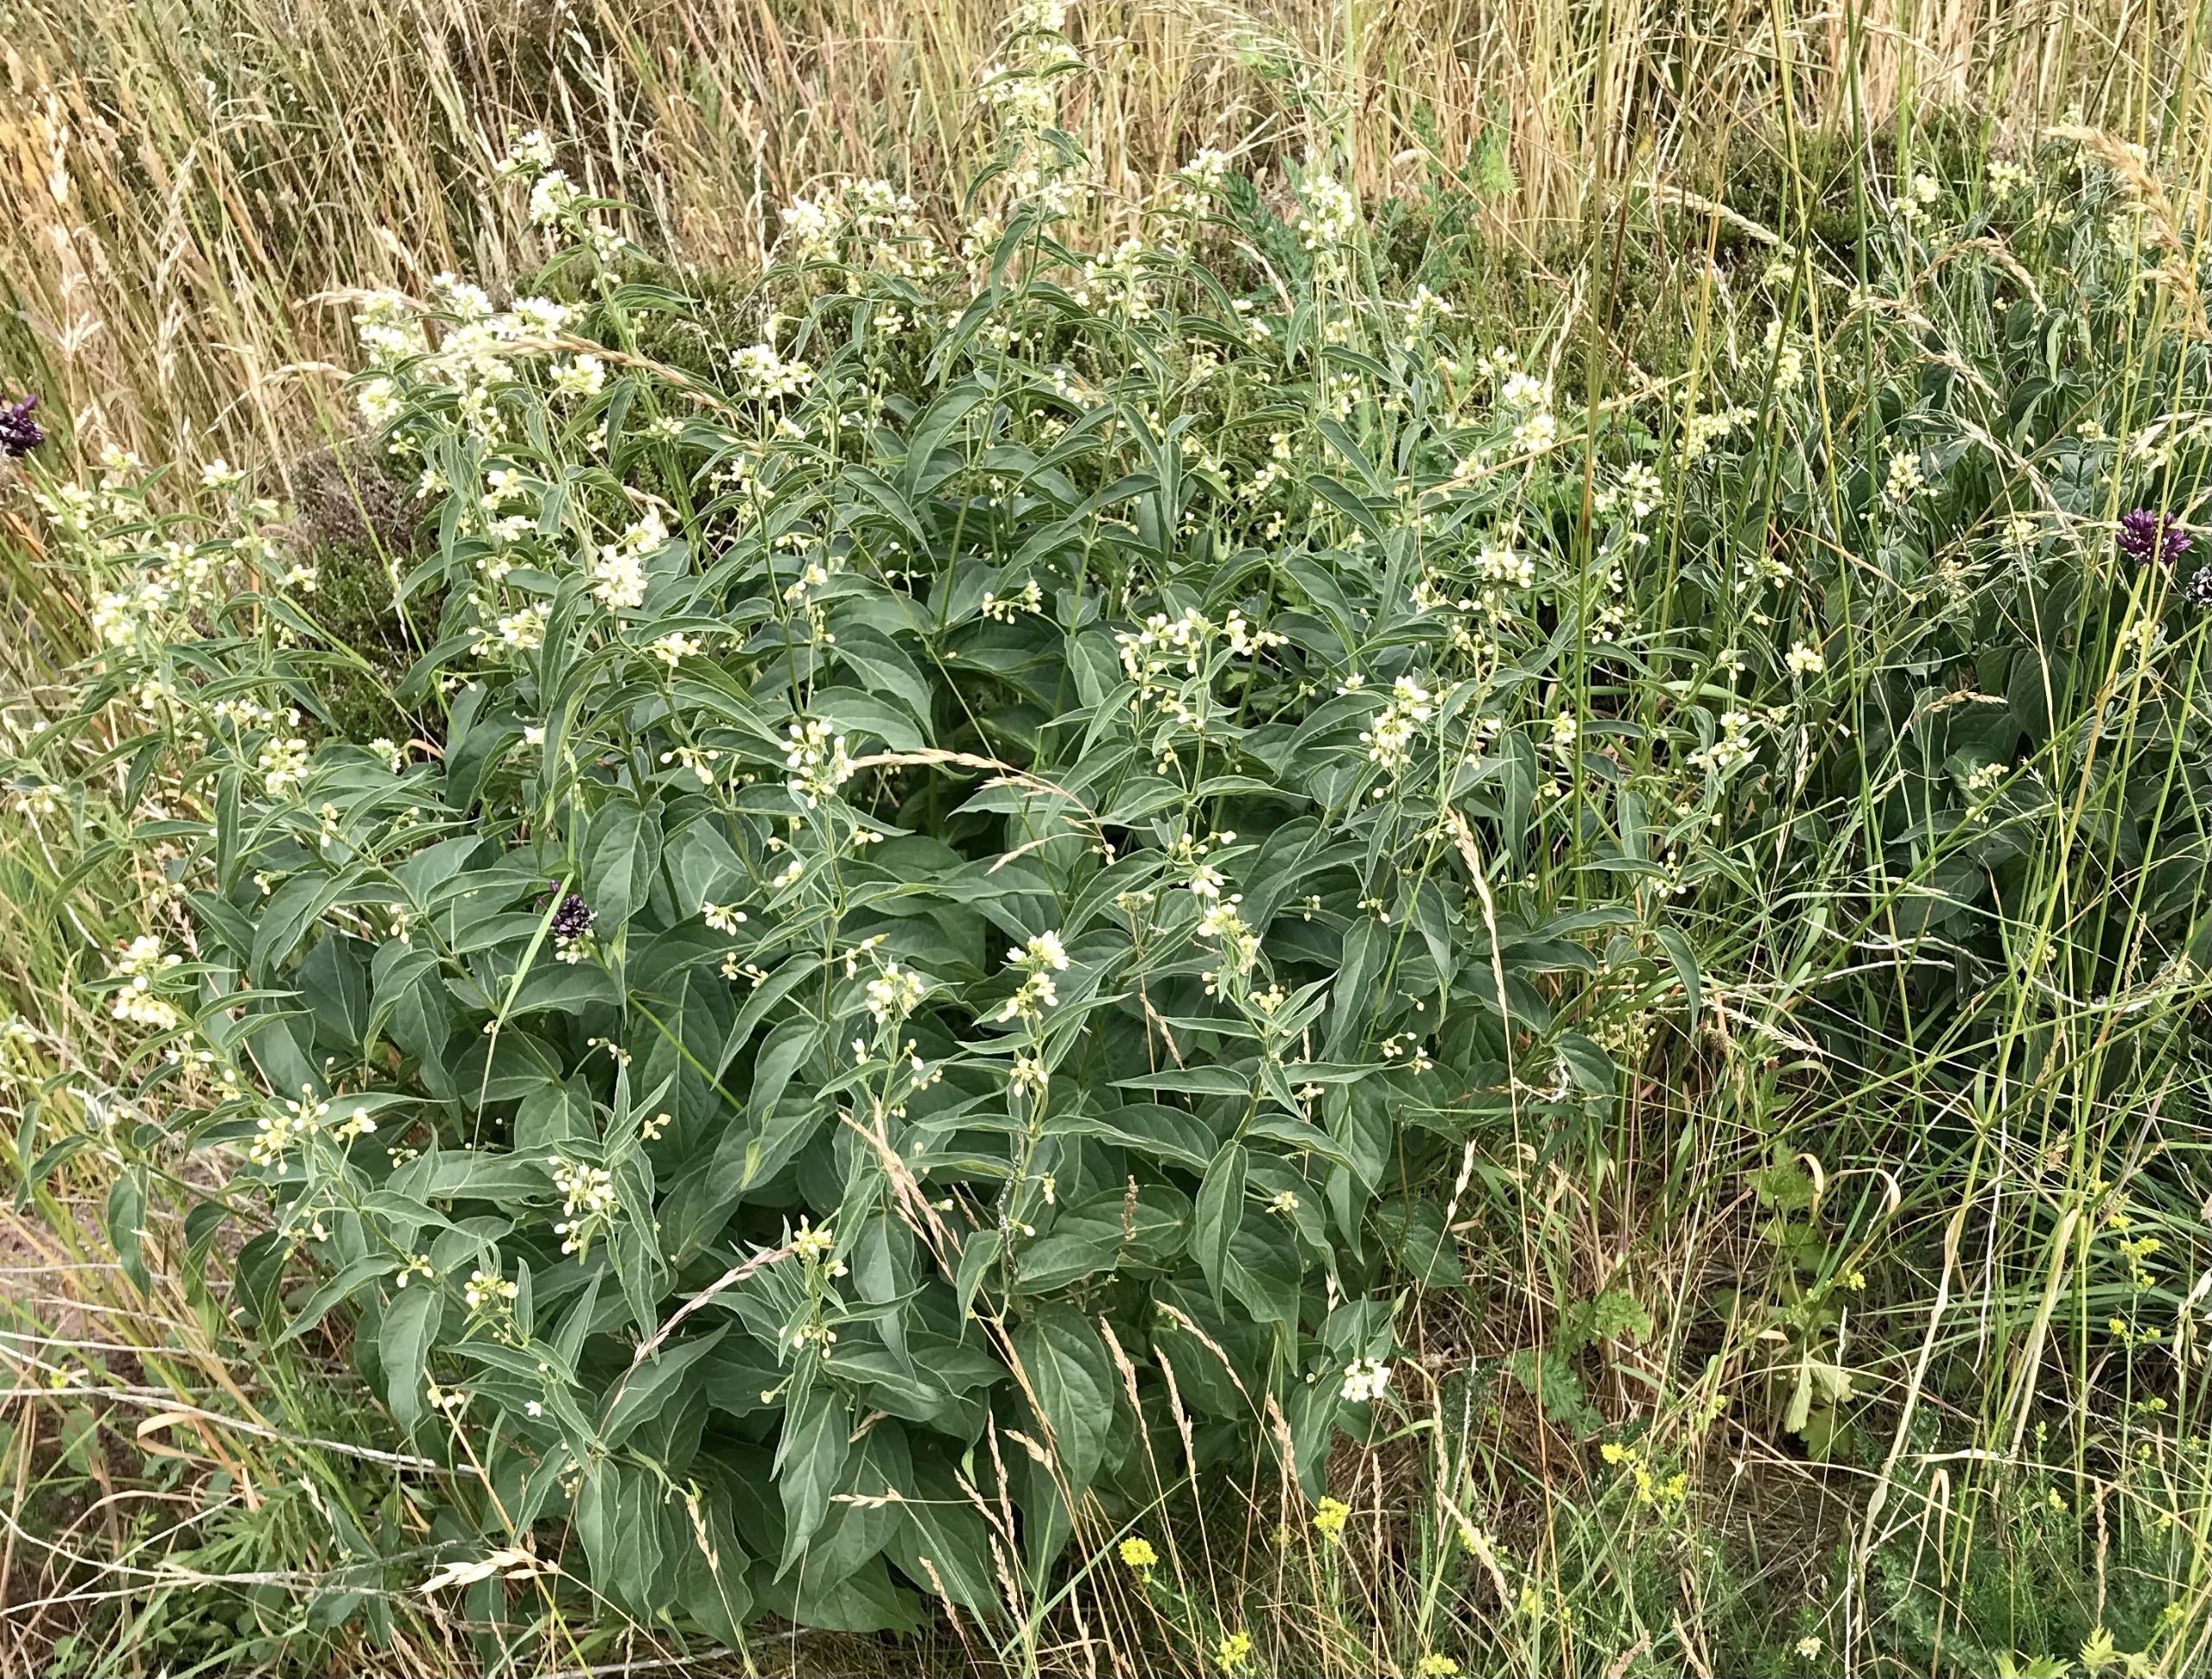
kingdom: Plantae
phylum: Tracheophyta
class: Magnoliopsida
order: Gentianales
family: Apocynaceae
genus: Vincetoxicum
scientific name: Vincetoxicum hirundinaria
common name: Svalerod
